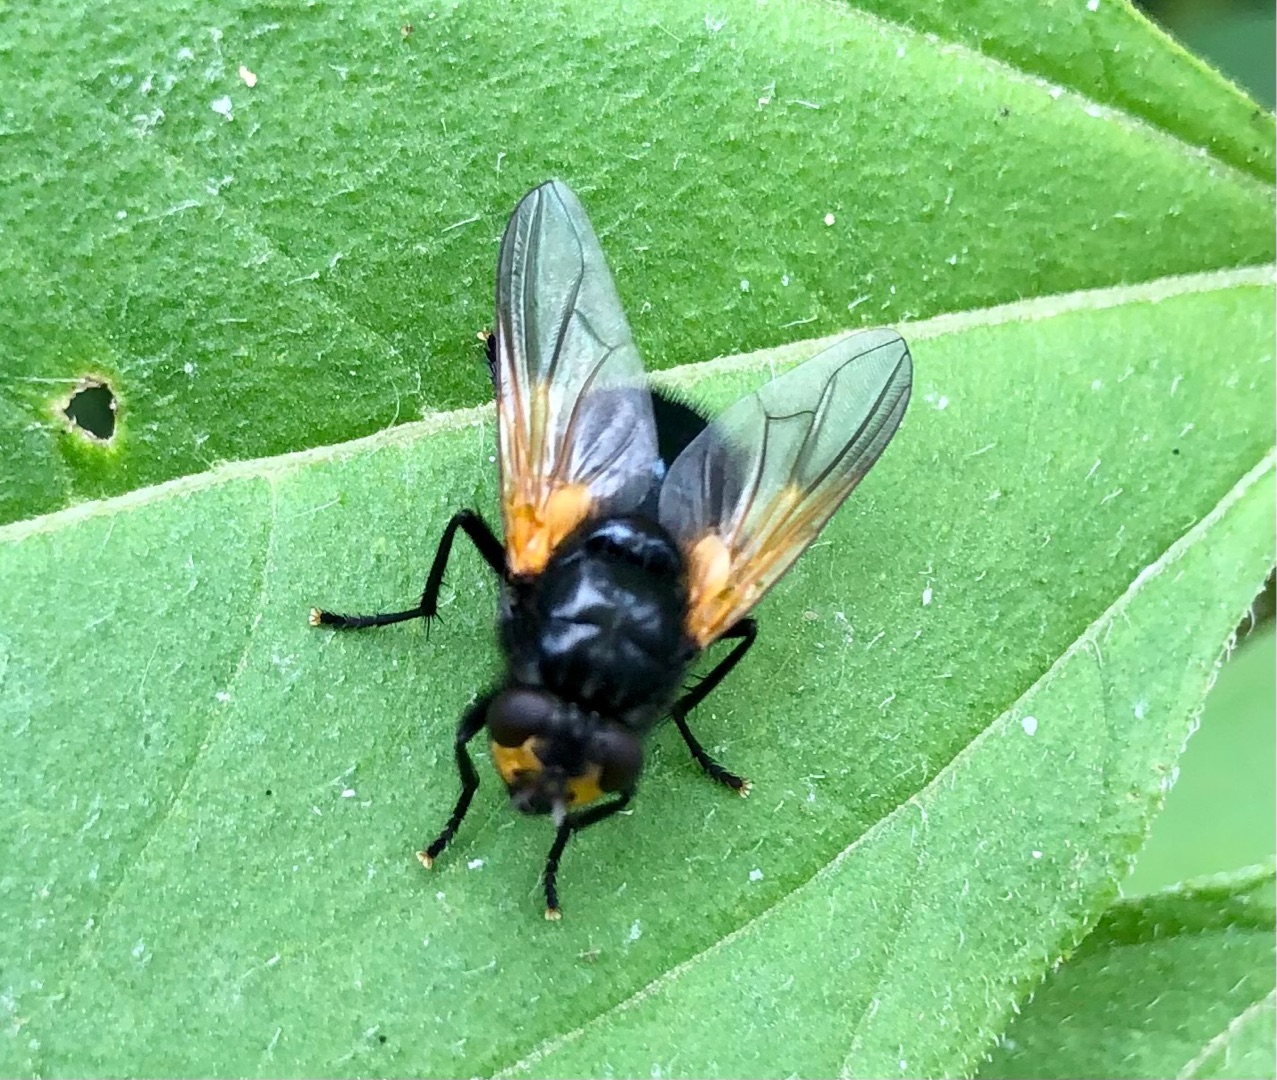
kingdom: Animalia
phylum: Arthropoda
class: Insecta
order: Diptera
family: Muscidae
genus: Mesembrina
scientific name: Mesembrina meridiana
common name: Gulvinget flue
